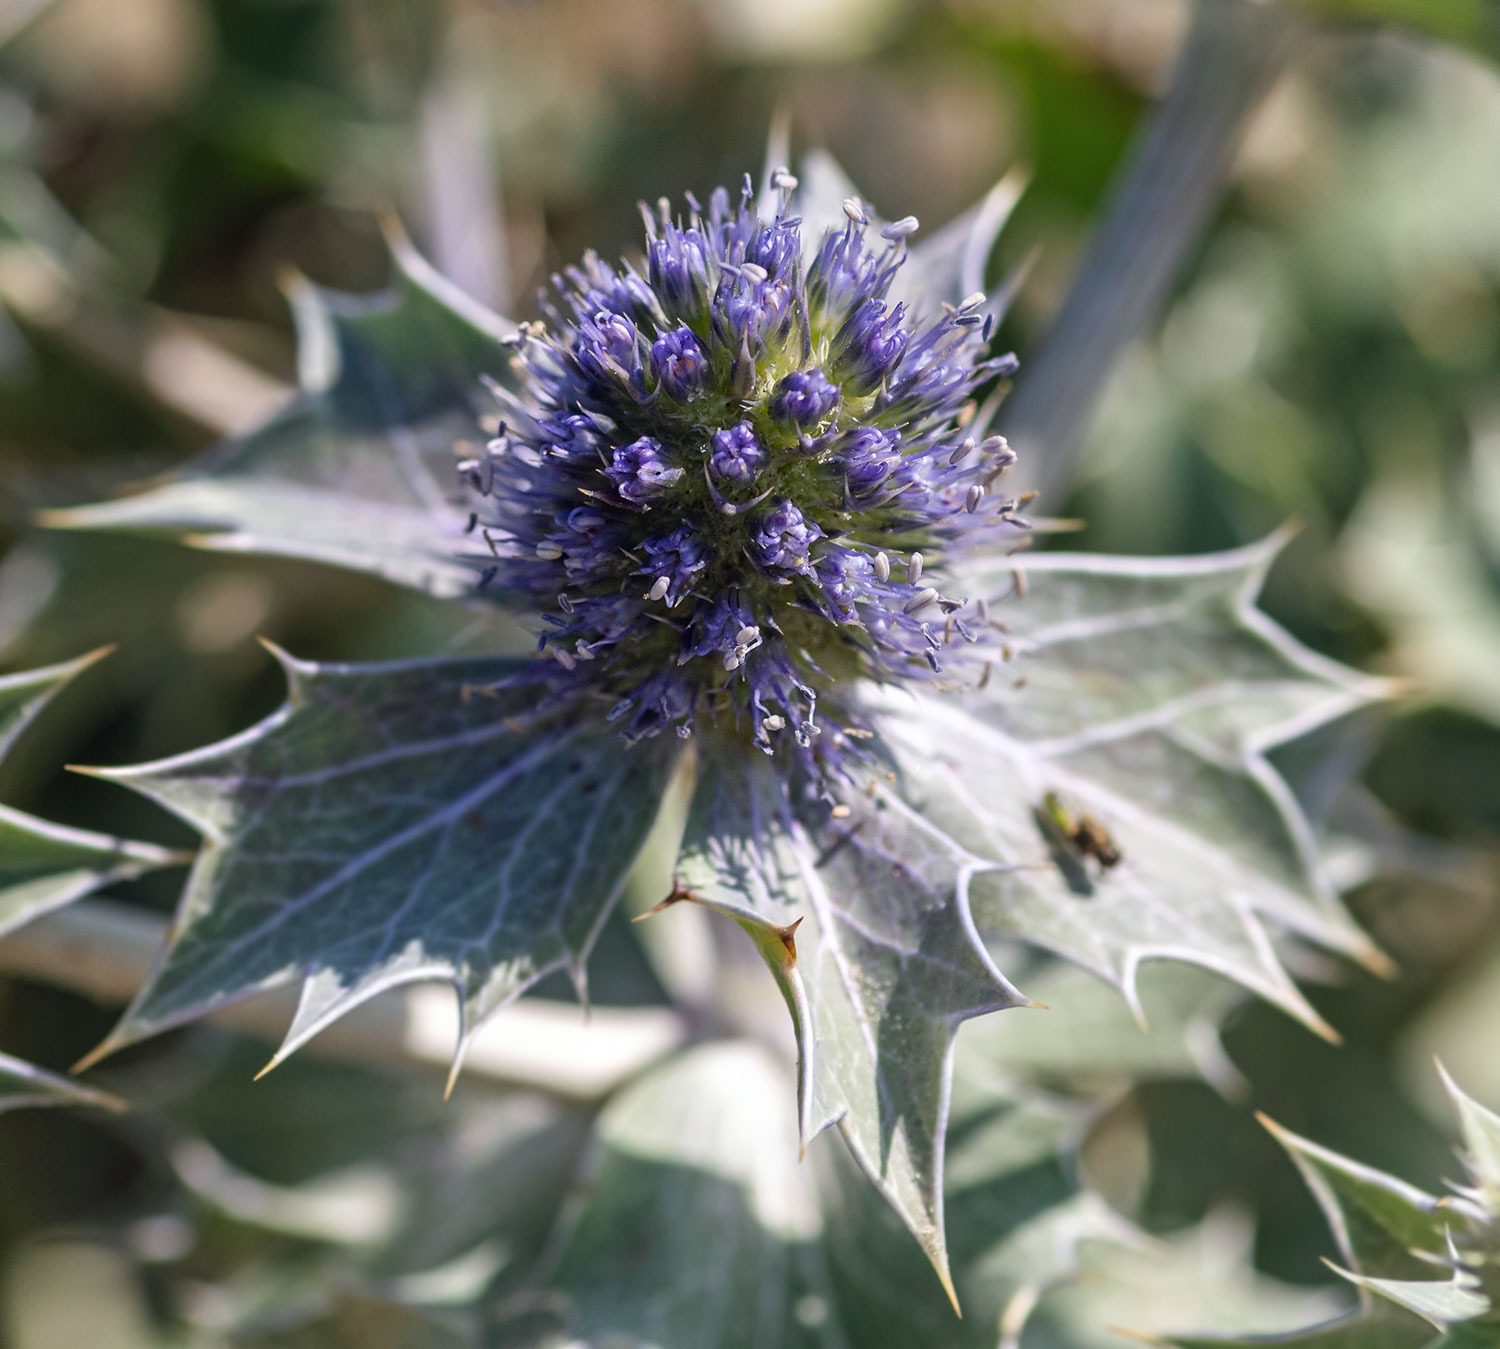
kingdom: Plantae
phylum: Tracheophyta
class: Magnoliopsida
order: Apiales
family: Apiaceae
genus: Eryngium
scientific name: Eryngium maritimum
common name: Strand-mandstro
